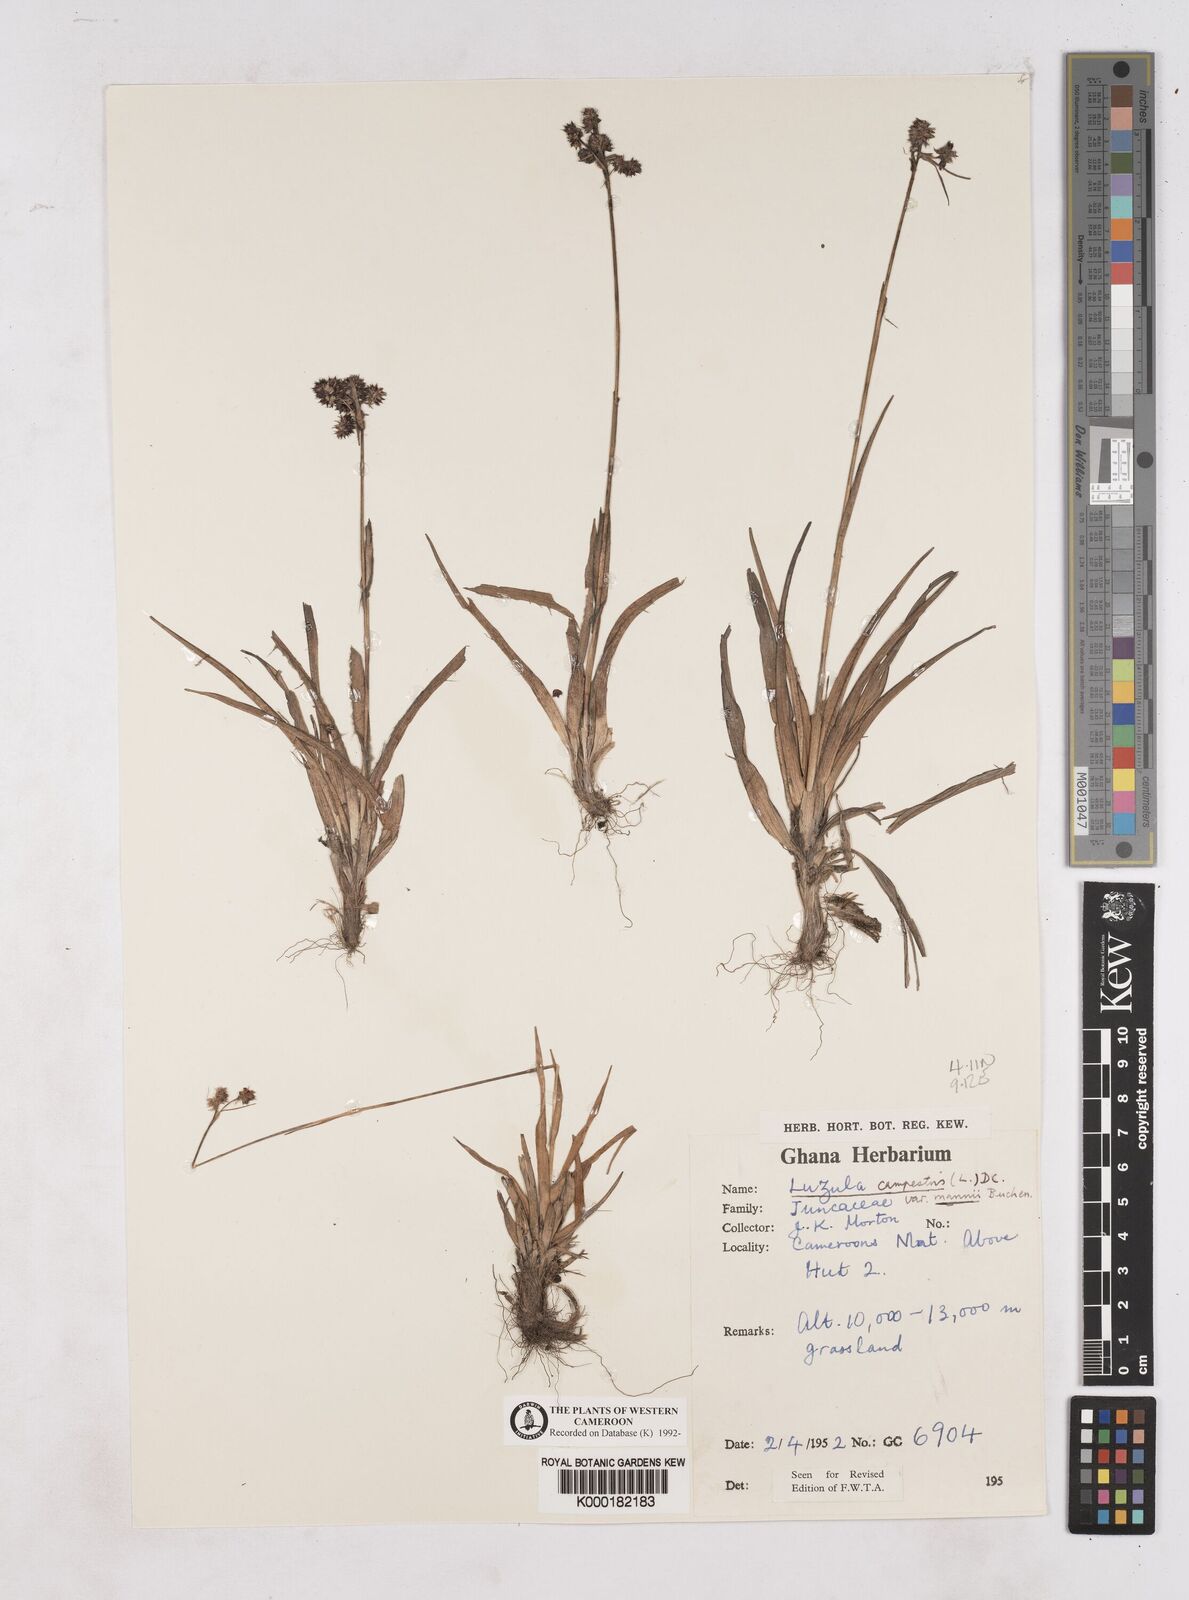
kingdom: Plantae
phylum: Tracheophyta
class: Liliopsida
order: Poales
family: Juncaceae
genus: Luzula
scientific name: Luzula mannii
